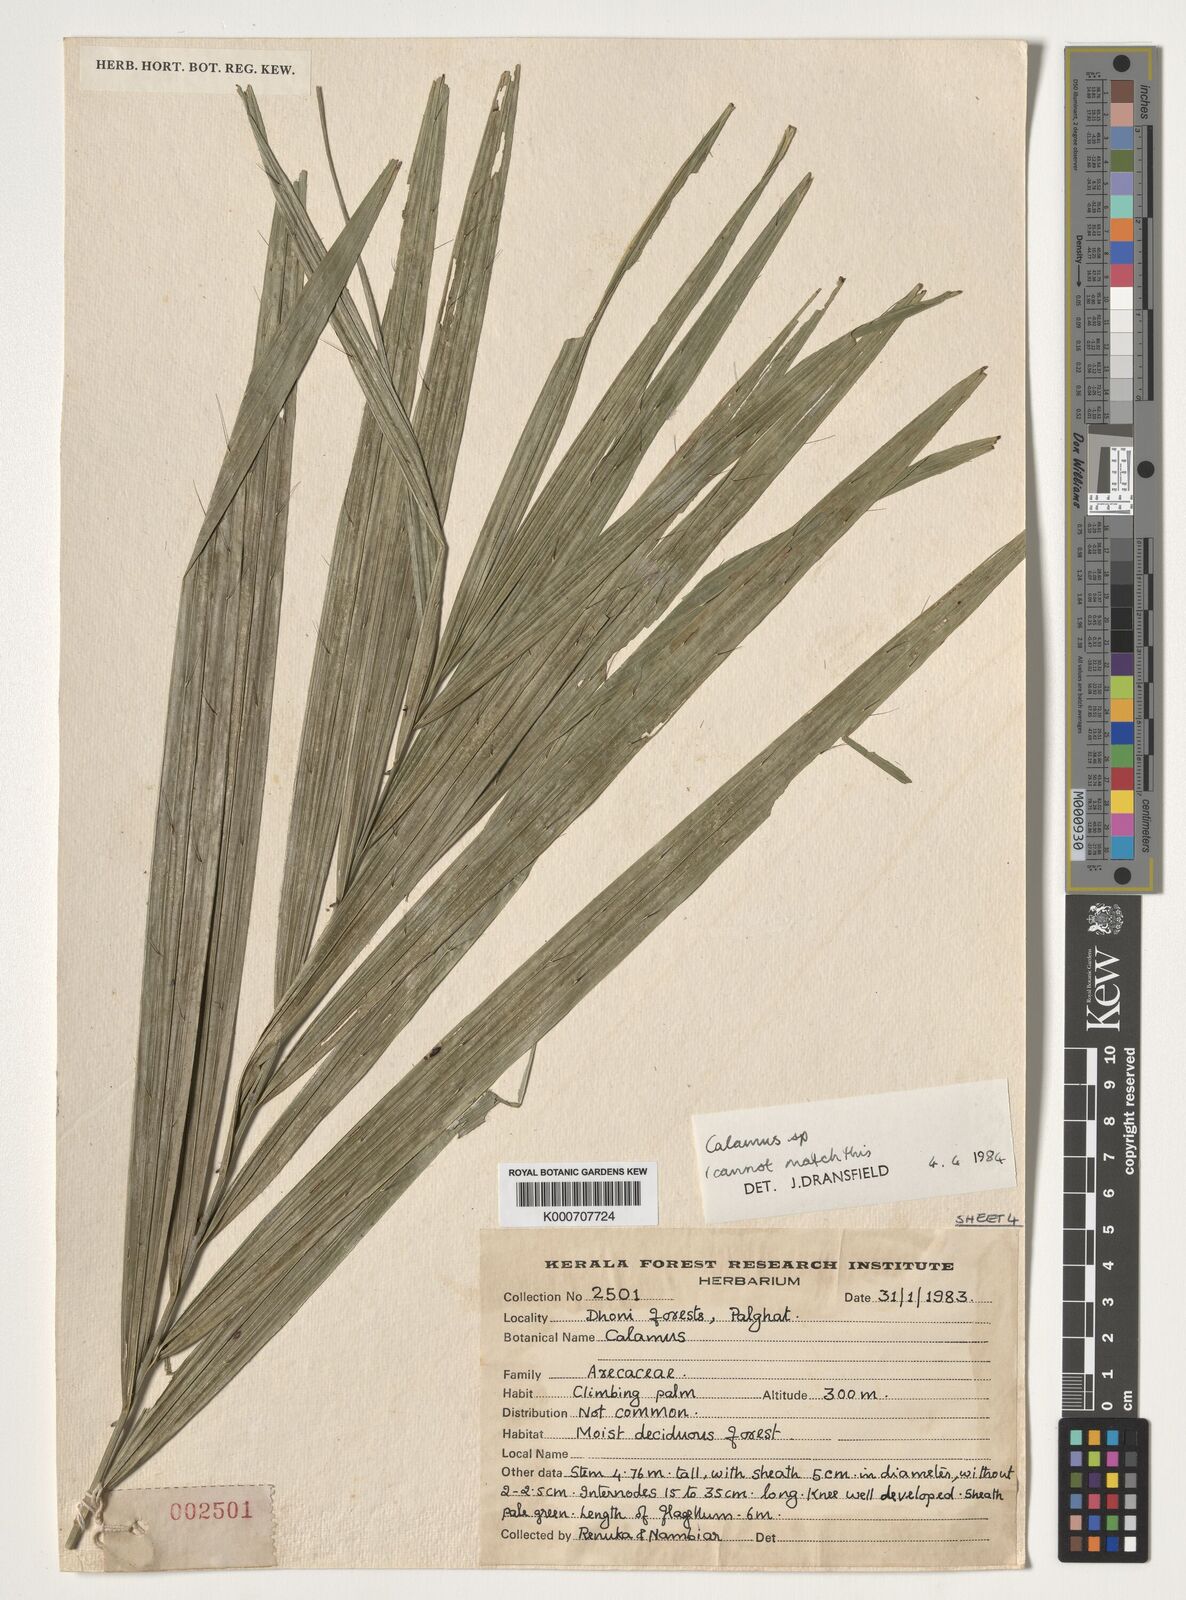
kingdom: Plantae
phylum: Tracheophyta
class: Liliopsida
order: Arecales
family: Arecaceae
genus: Calamus
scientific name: Calamus
